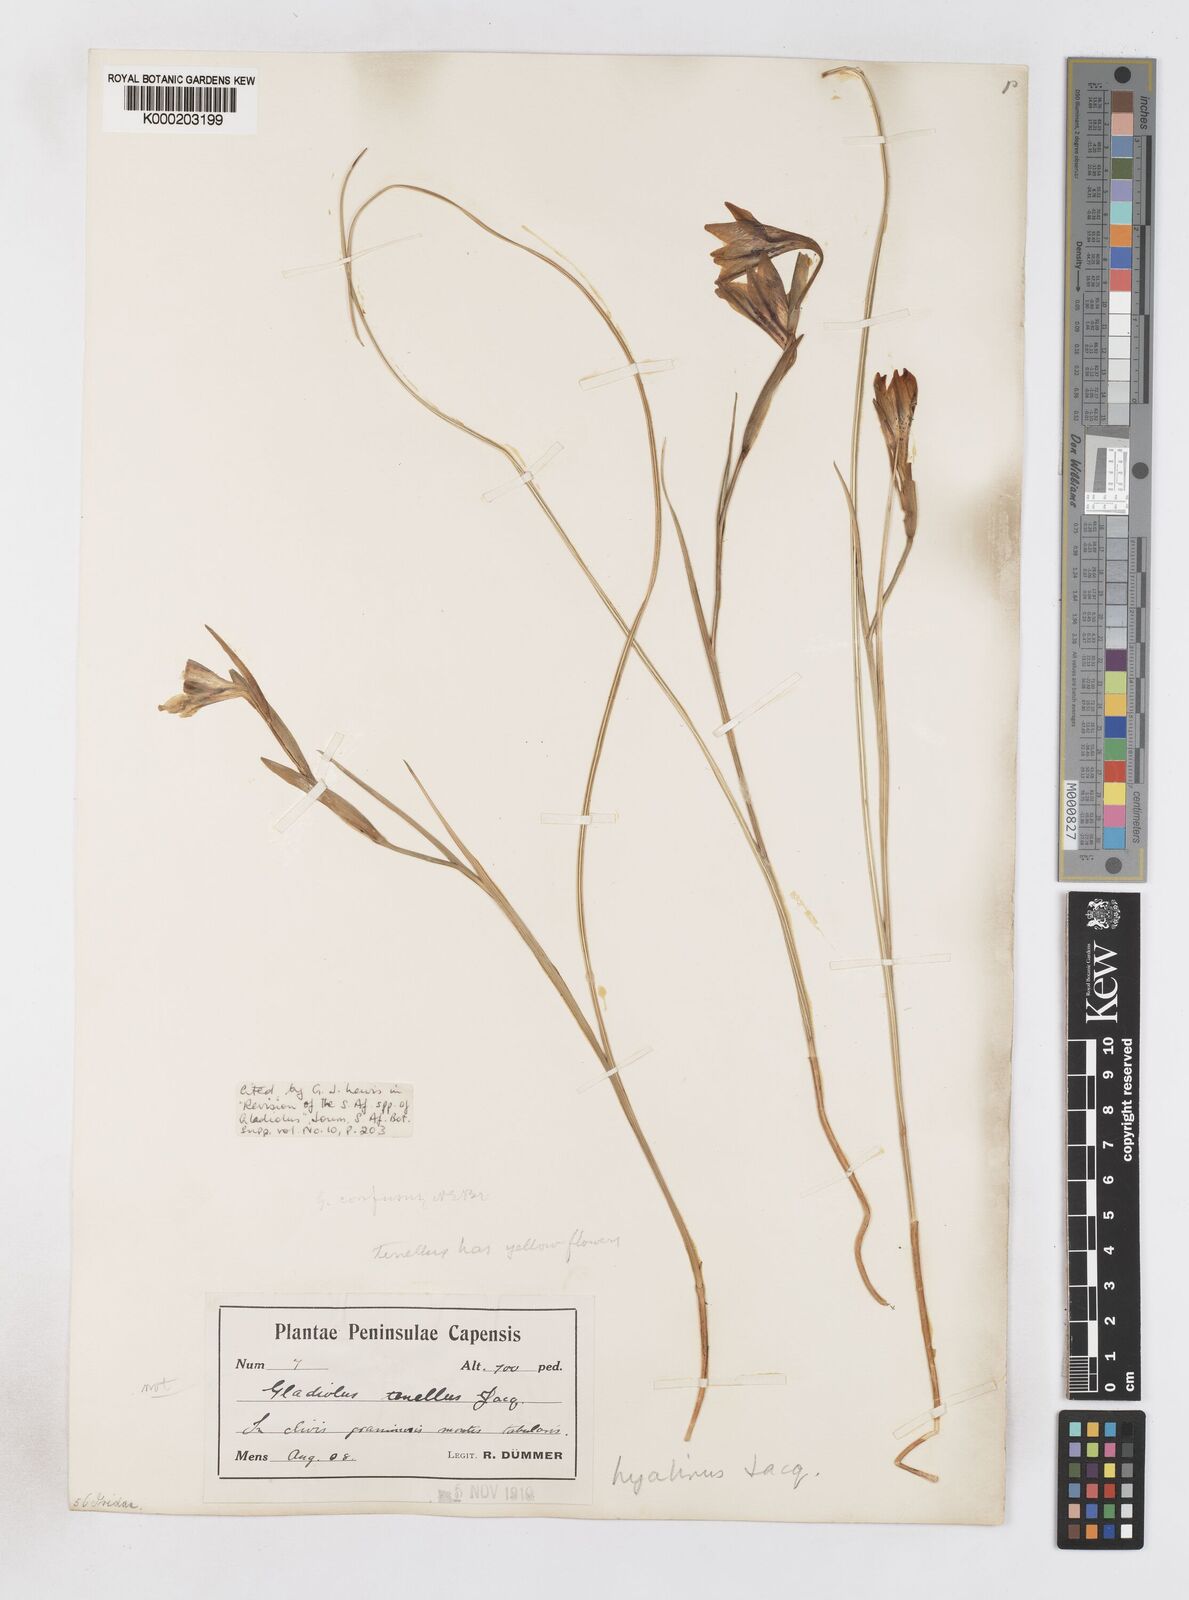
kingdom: Plantae
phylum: Tracheophyta
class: Liliopsida
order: Asparagales
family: Iridaceae
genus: Gladiolus
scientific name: Gladiolus hyalinus
